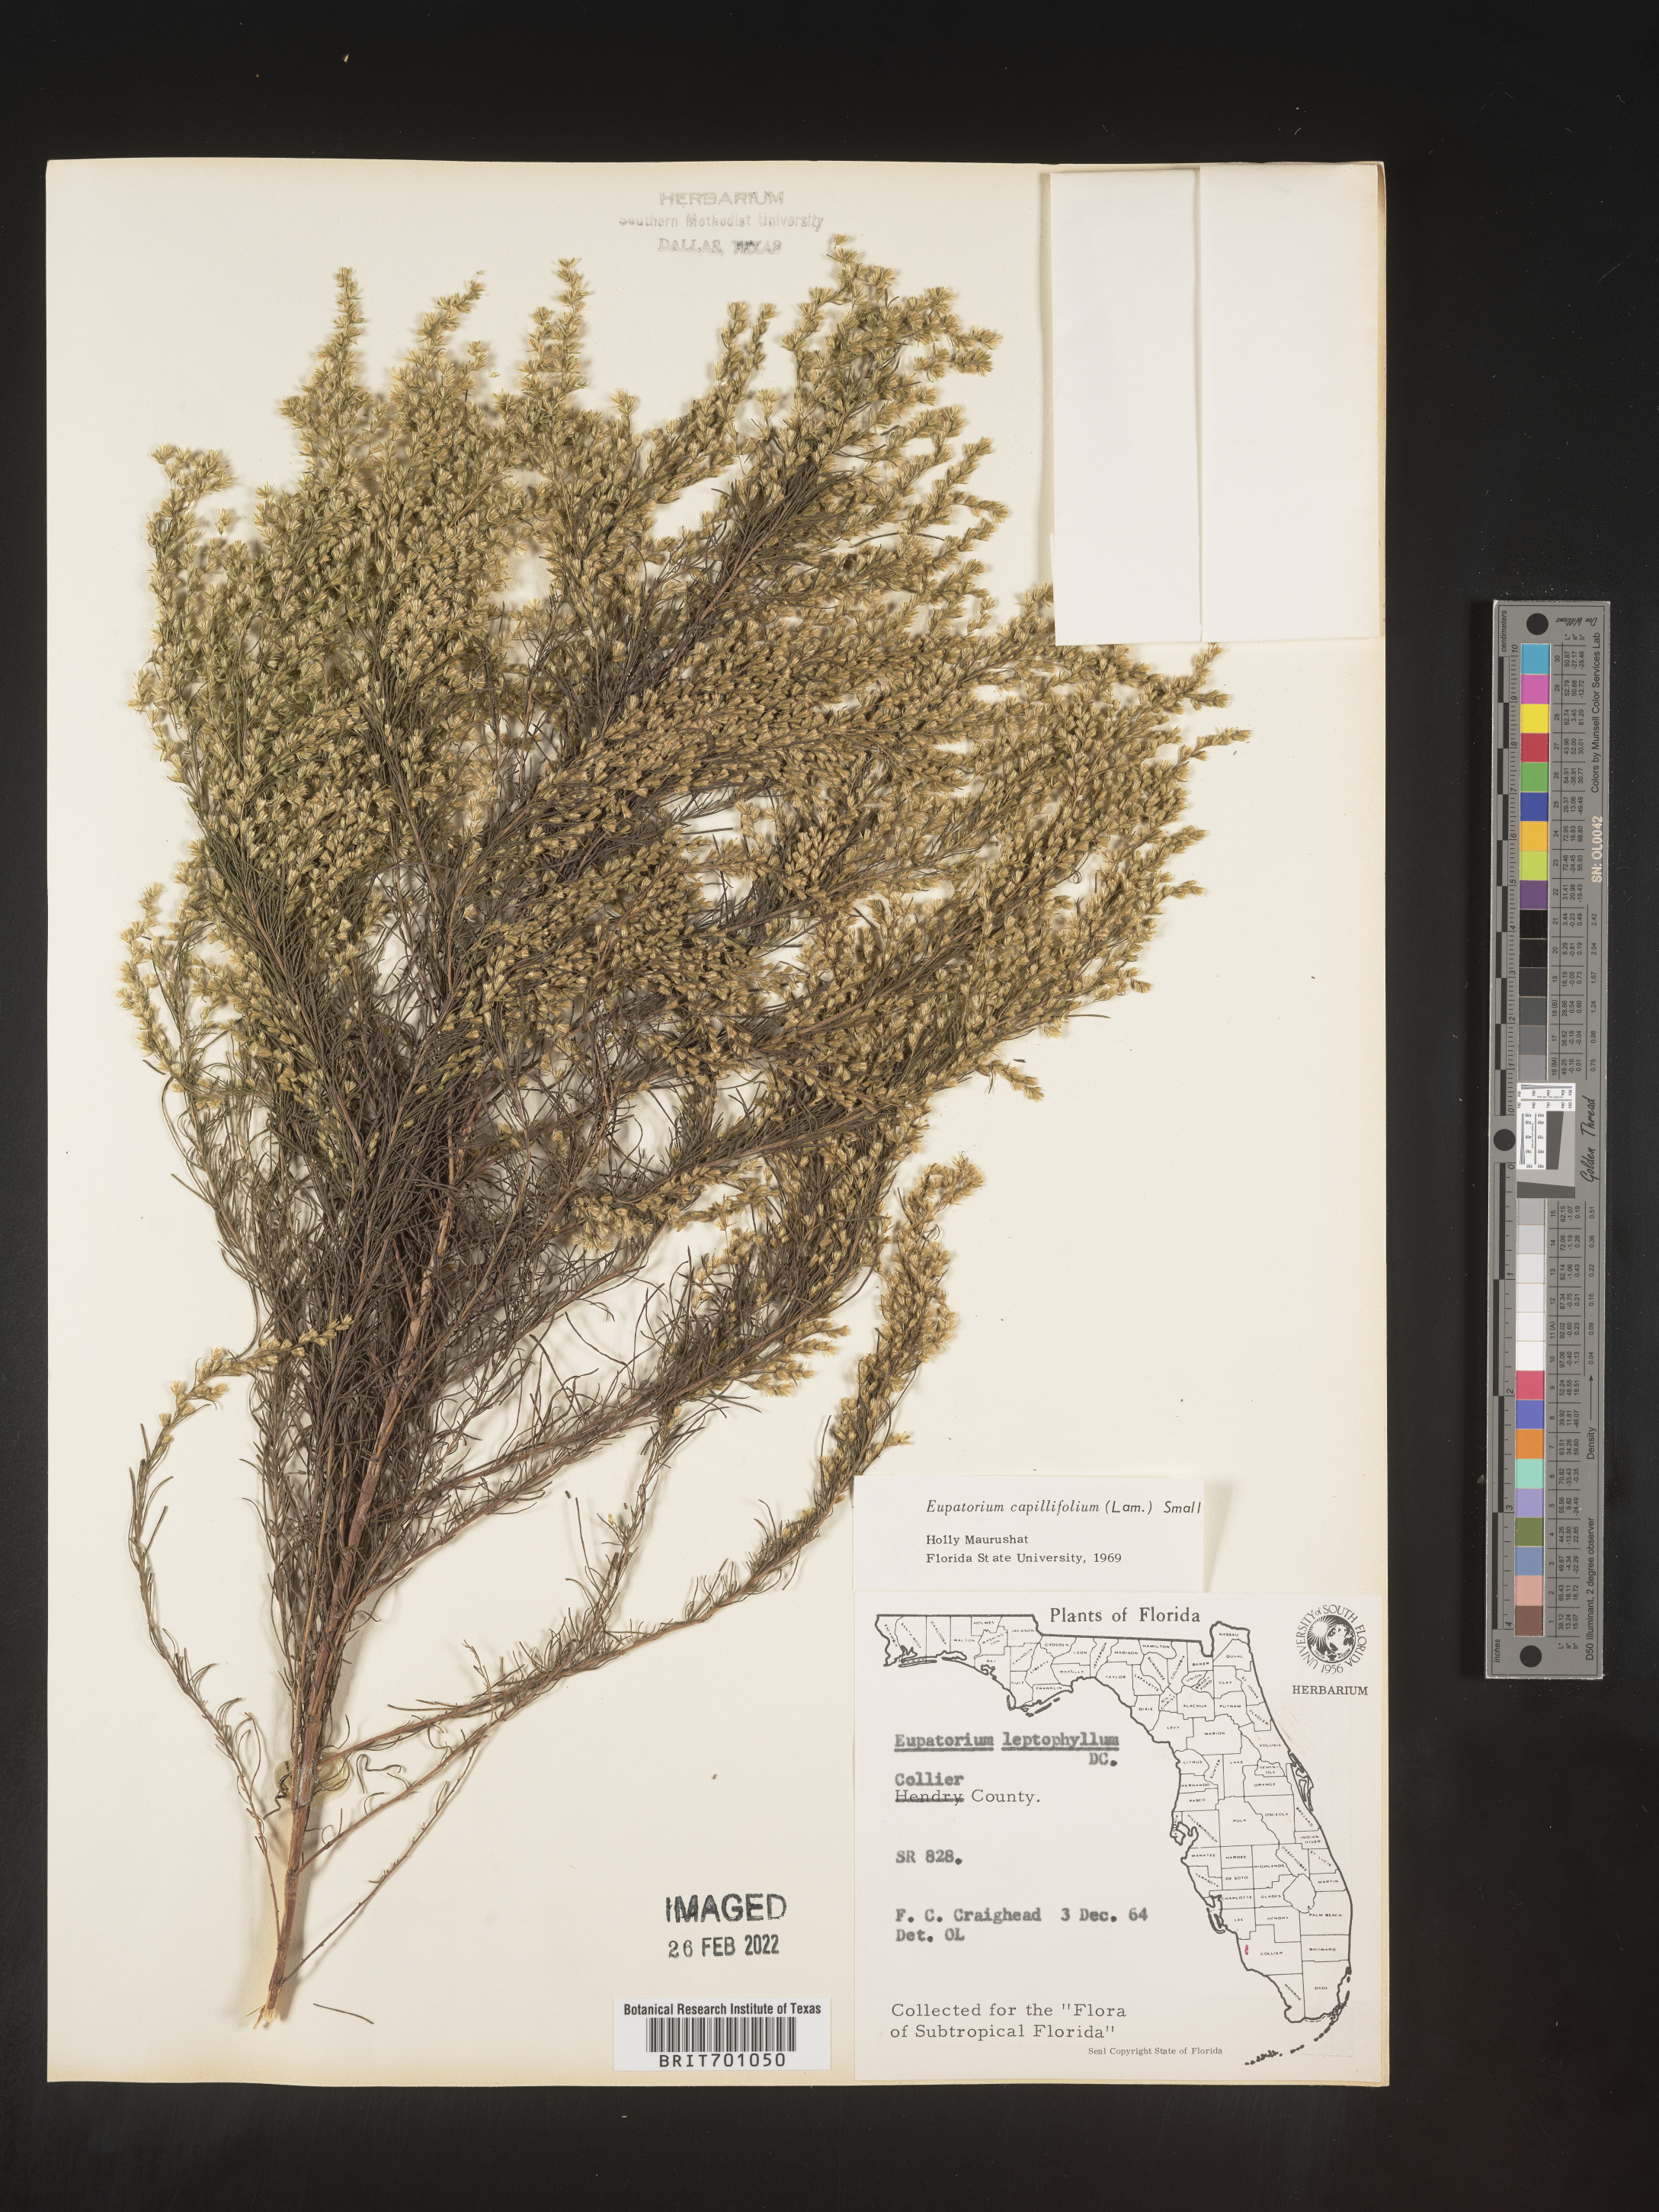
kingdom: Plantae
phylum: Tracheophyta
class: Magnoliopsida
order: Asterales
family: Asteraceae
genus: Eupatorium
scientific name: Eupatorium capillifolium
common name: Dog-fennel
